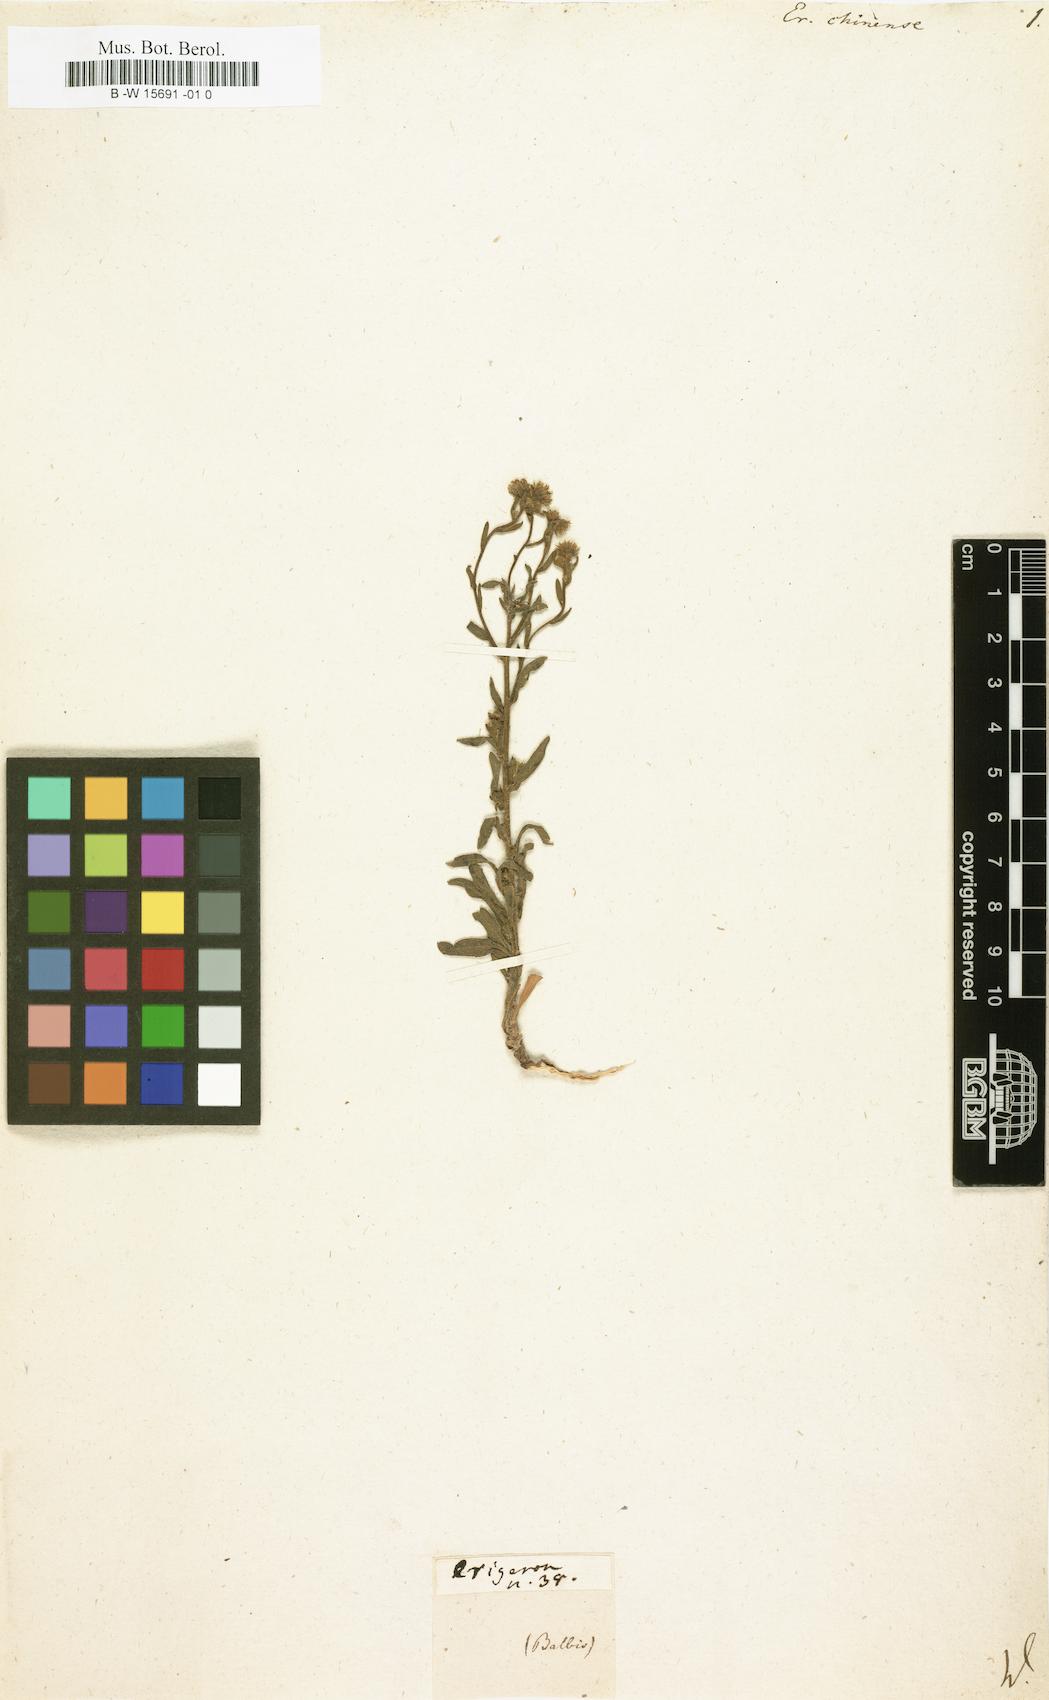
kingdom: Plantae
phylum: Tracheophyta
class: Magnoliopsida
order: Asterales
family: Asteraceae
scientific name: Asteraceae
